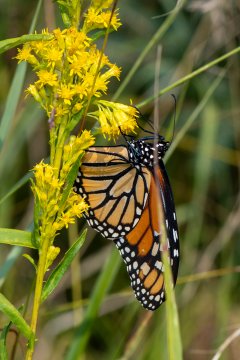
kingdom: Animalia
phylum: Arthropoda
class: Insecta
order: Lepidoptera
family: Nymphalidae
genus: Danaus
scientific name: Danaus plexippus
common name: Monarch
